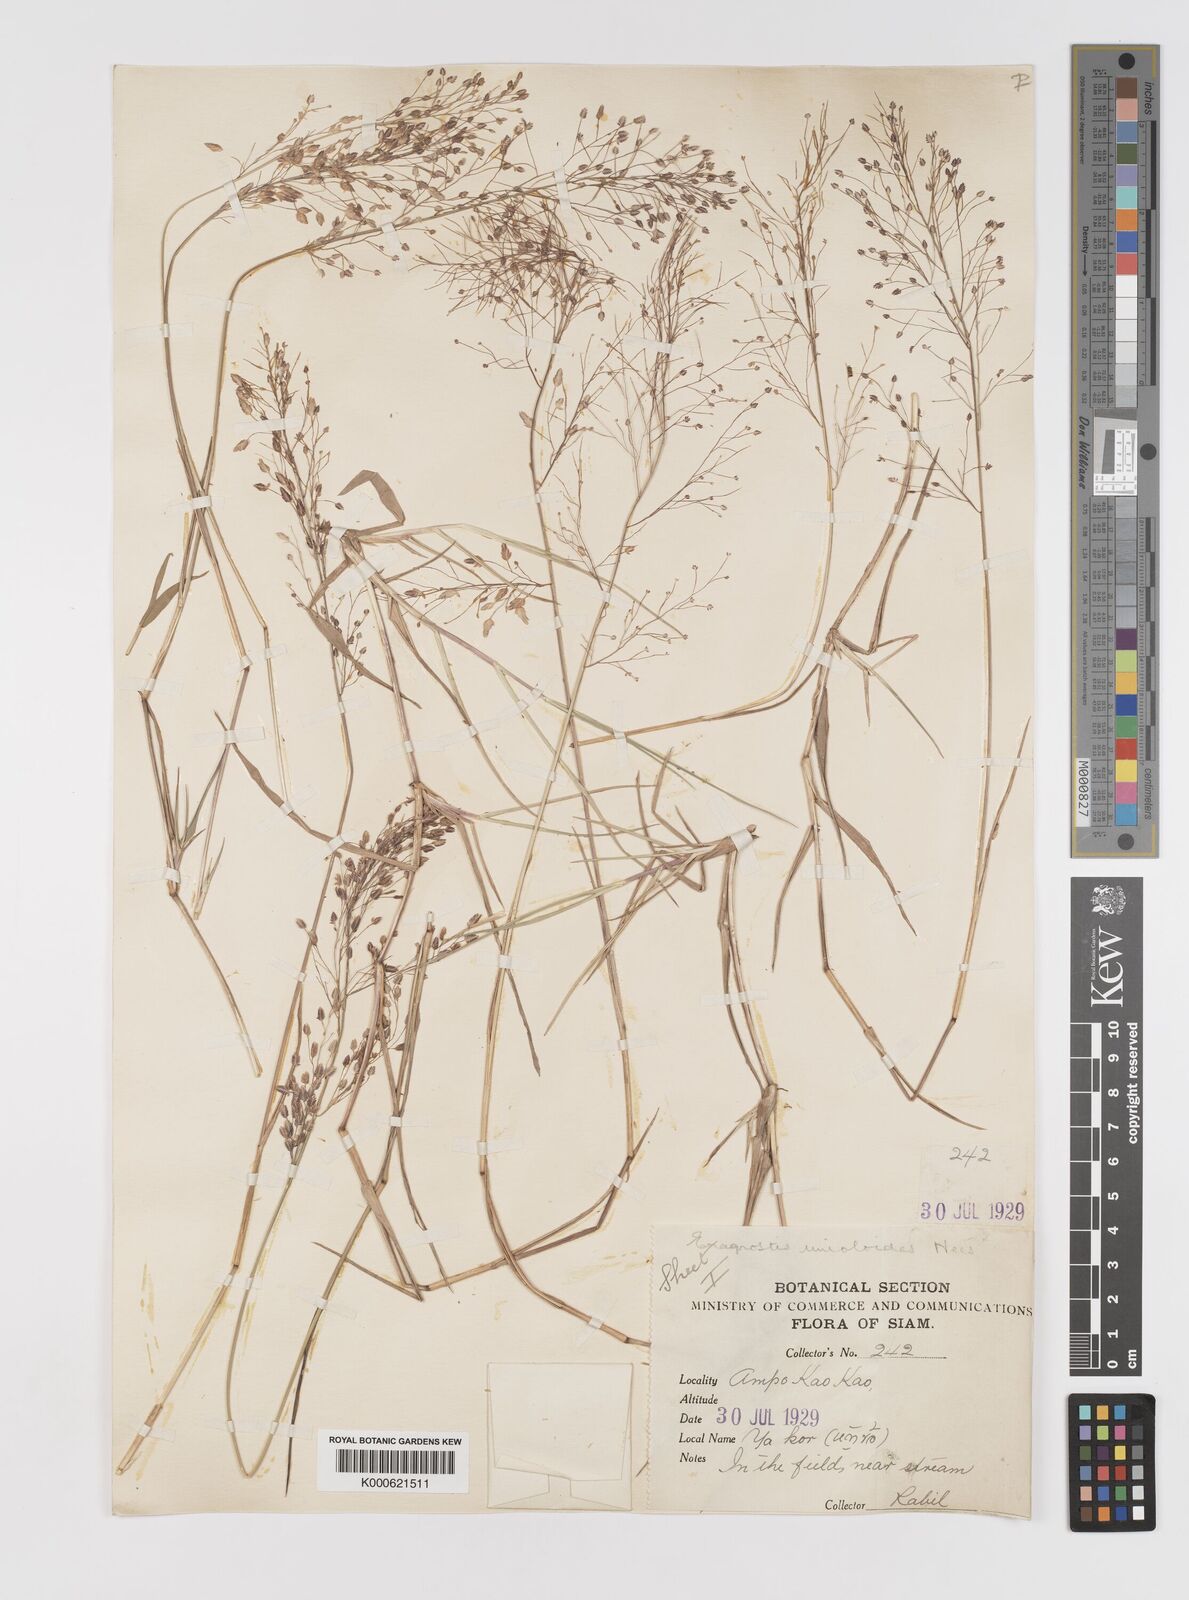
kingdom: Plantae
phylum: Tracheophyta
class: Liliopsida
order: Poales
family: Poaceae
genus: Eragrostis
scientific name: Eragrostis unioloides
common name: Chinese lovegrass
